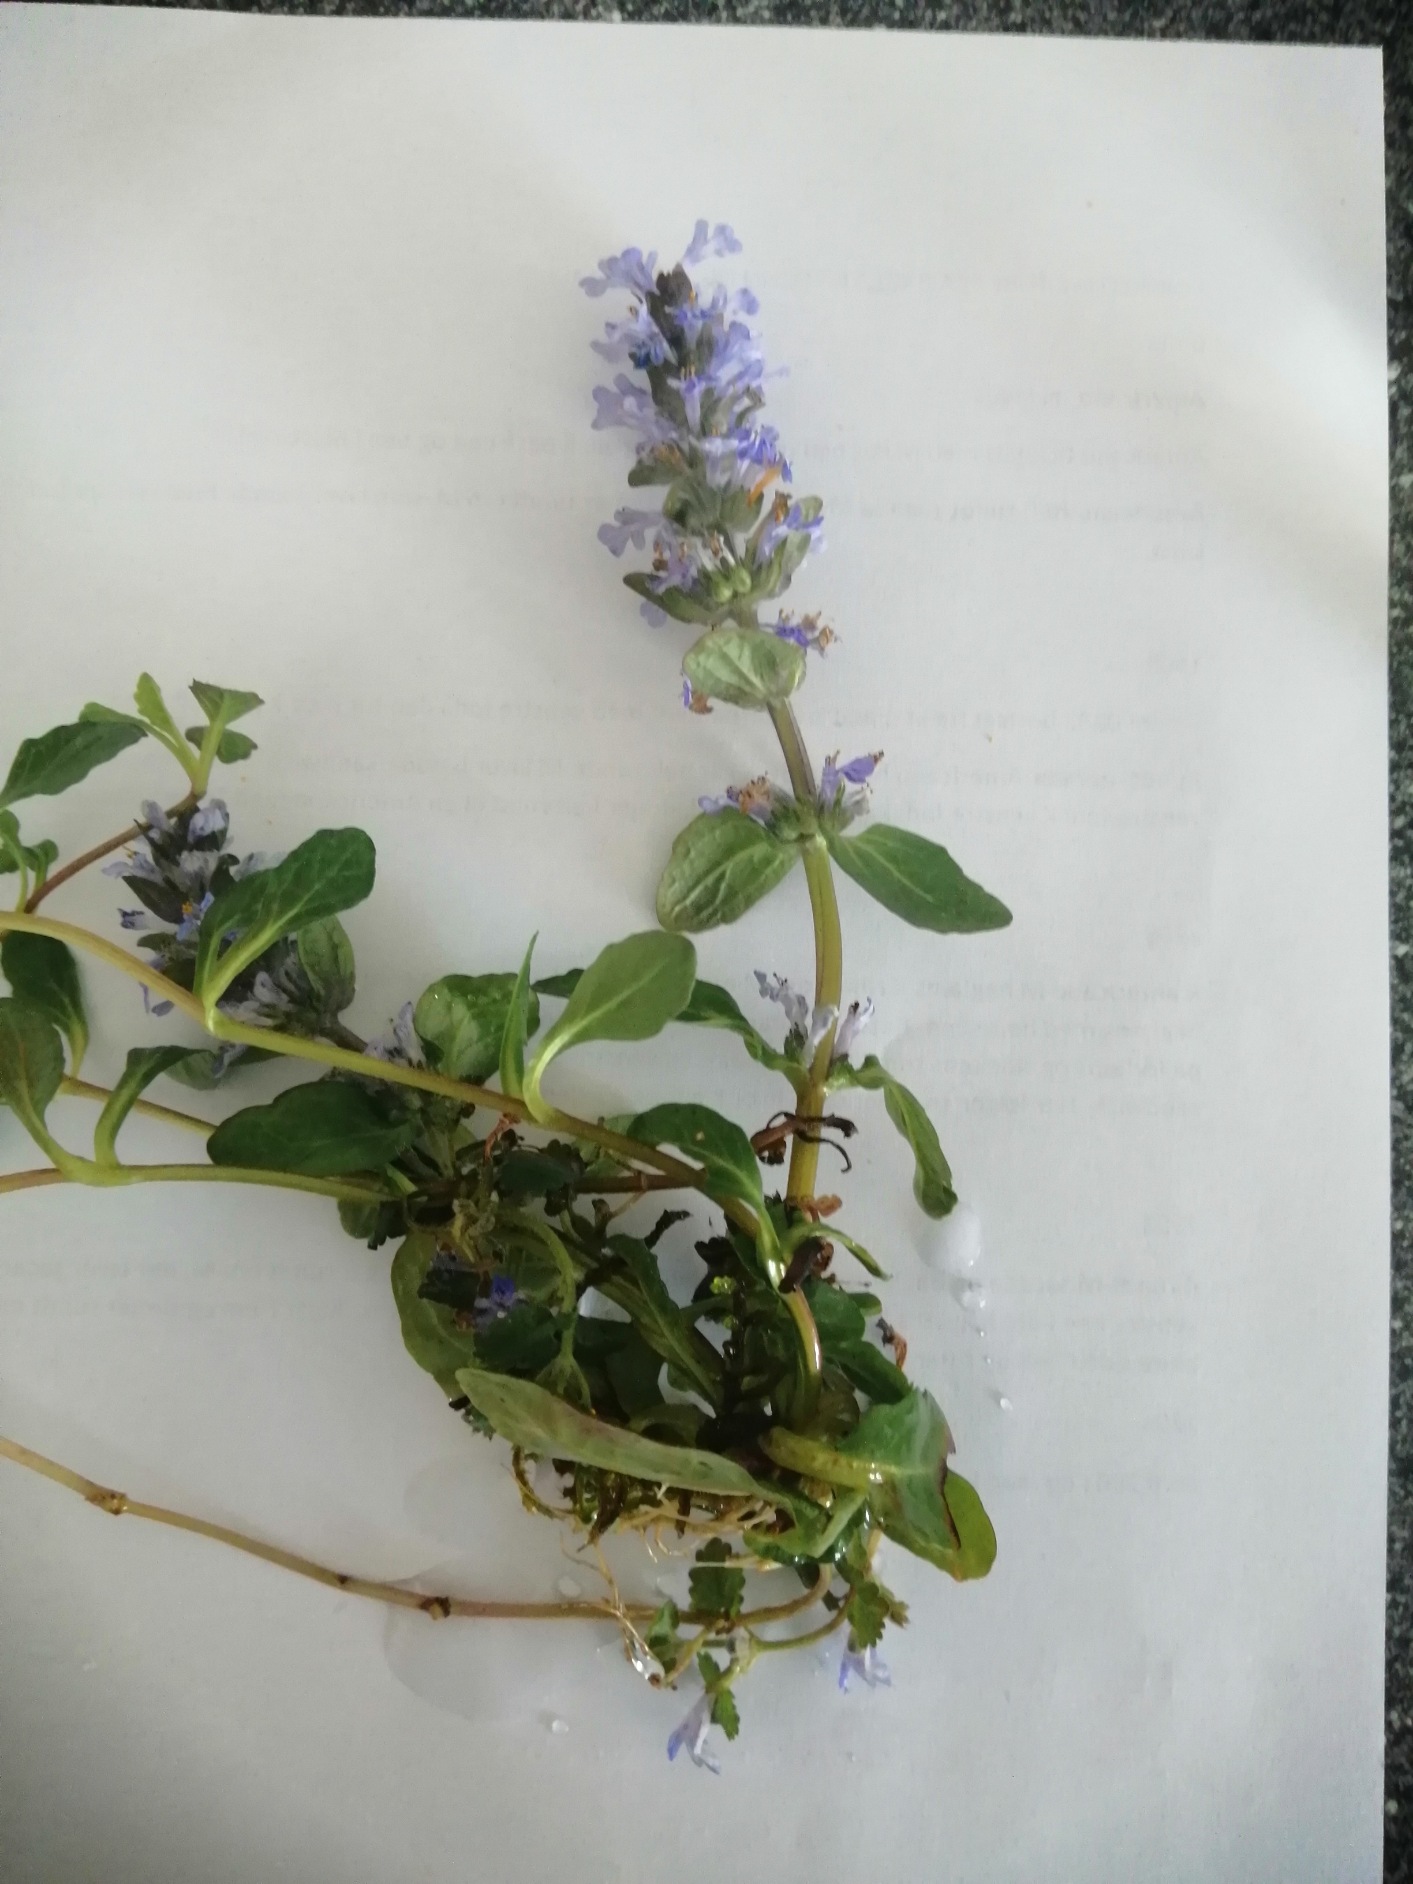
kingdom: Plantae
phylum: Tracheophyta
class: Magnoliopsida
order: Lamiales
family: Lamiaceae
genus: Ajuga
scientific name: Ajuga reptans
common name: Krybende læbeløs
